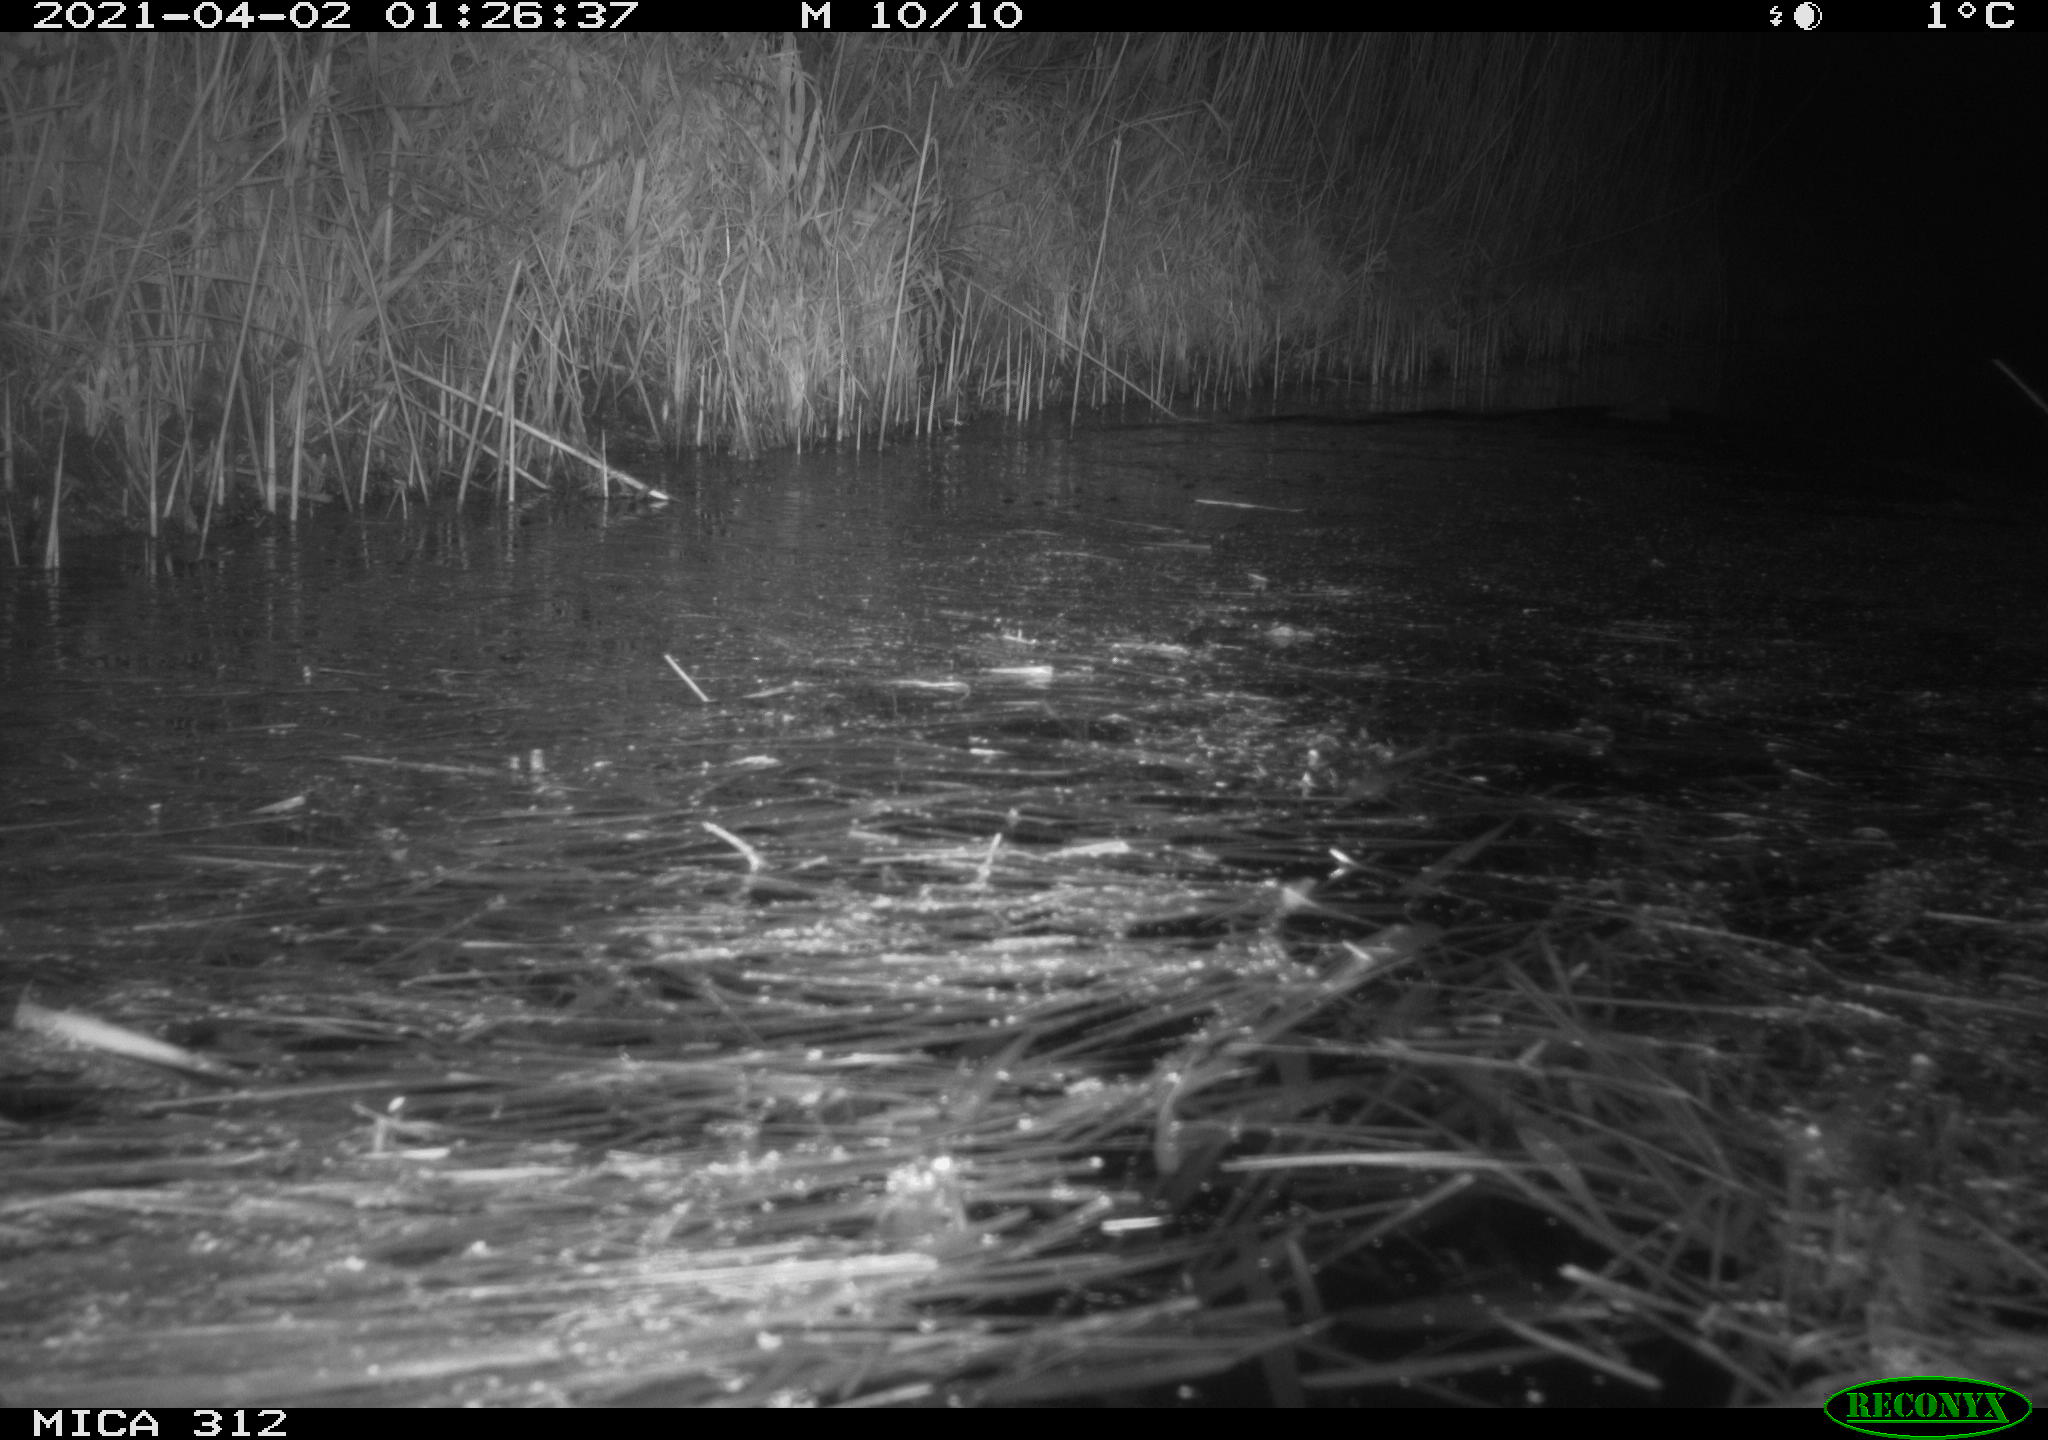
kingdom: Animalia
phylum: Chordata
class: Mammalia
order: Rodentia
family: Cricetidae
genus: Ondatra
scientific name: Ondatra zibethicus
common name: Muskrat
